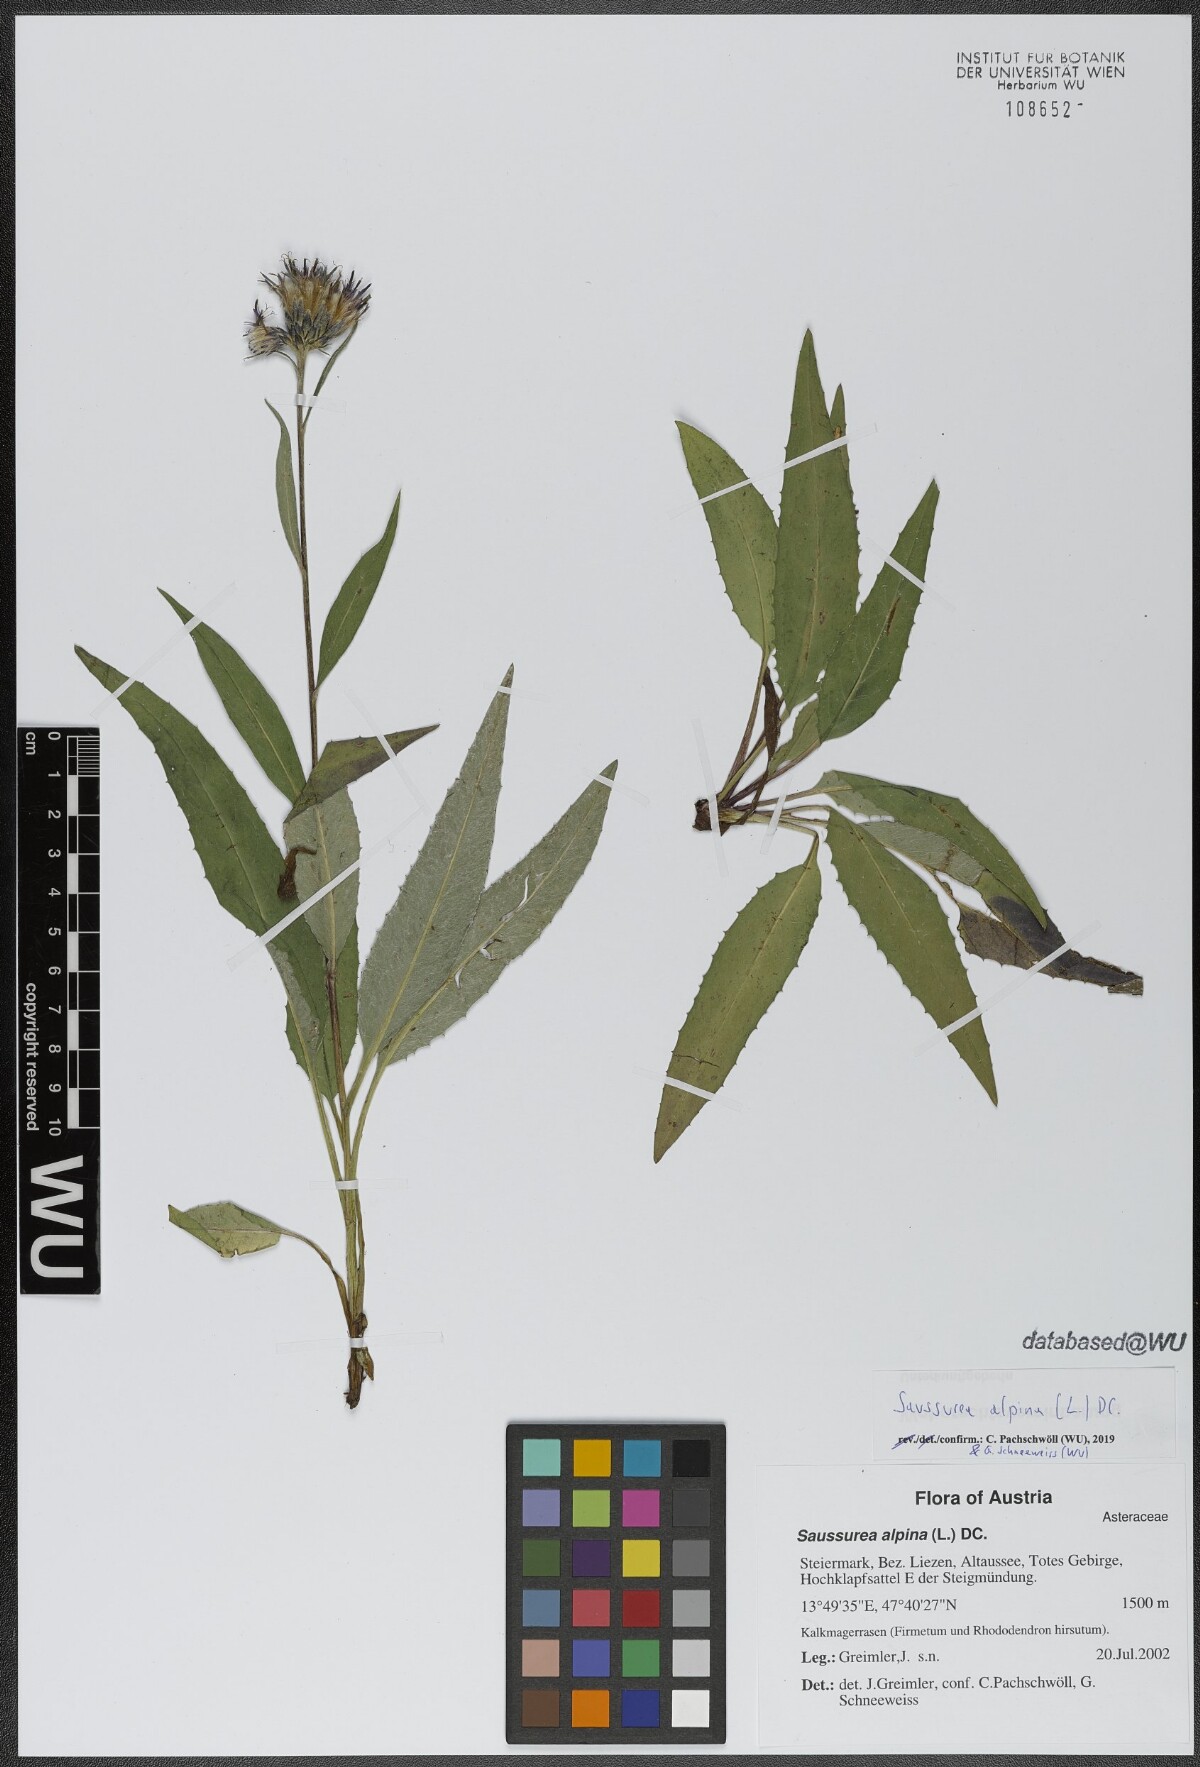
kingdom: Plantae
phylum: Tracheophyta
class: Magnoliopsida
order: Asterales
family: Asteraceae
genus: Saussurea
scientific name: Saussurea alpina
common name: Alpine saw-wort
